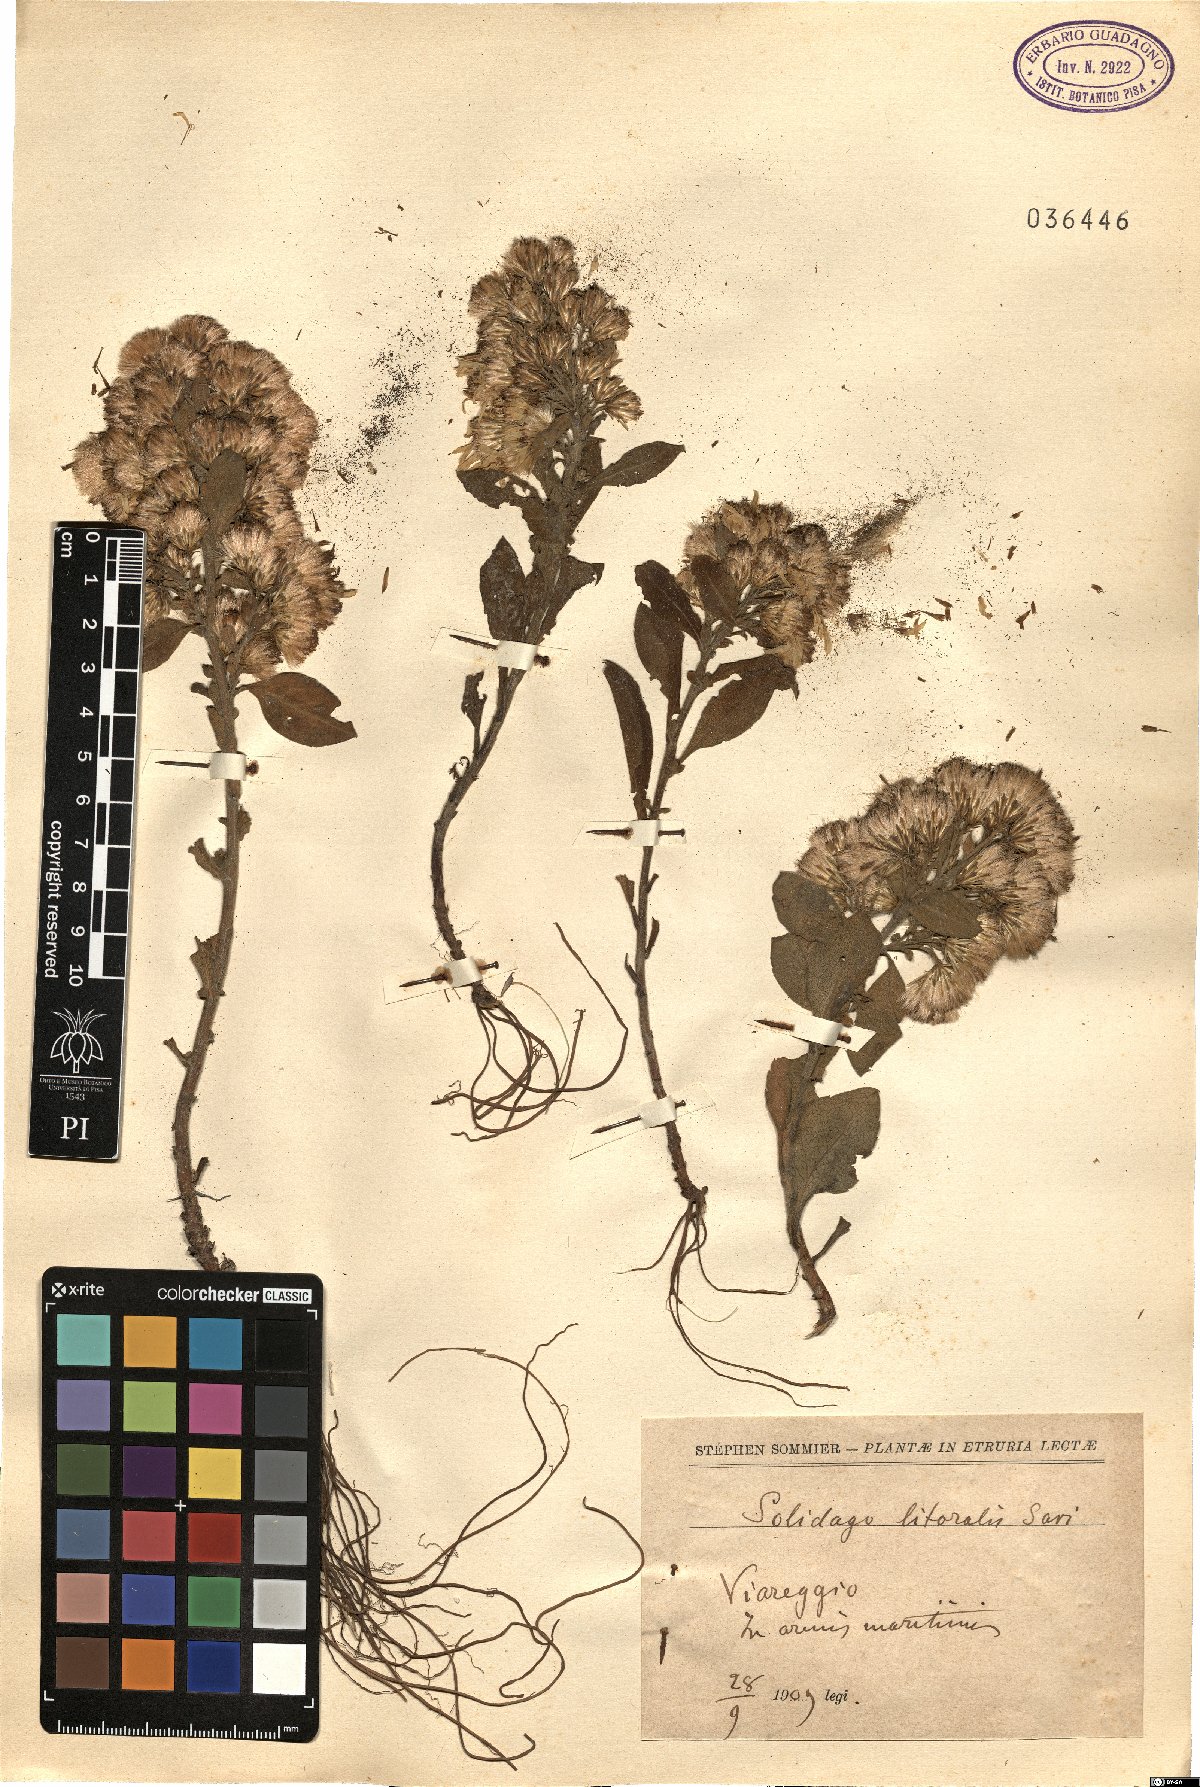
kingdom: Plantae
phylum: Tracheophyta
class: Magnoliopsida
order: Asterales
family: Asteraceae
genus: Solidago
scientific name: Solidago litoralis
